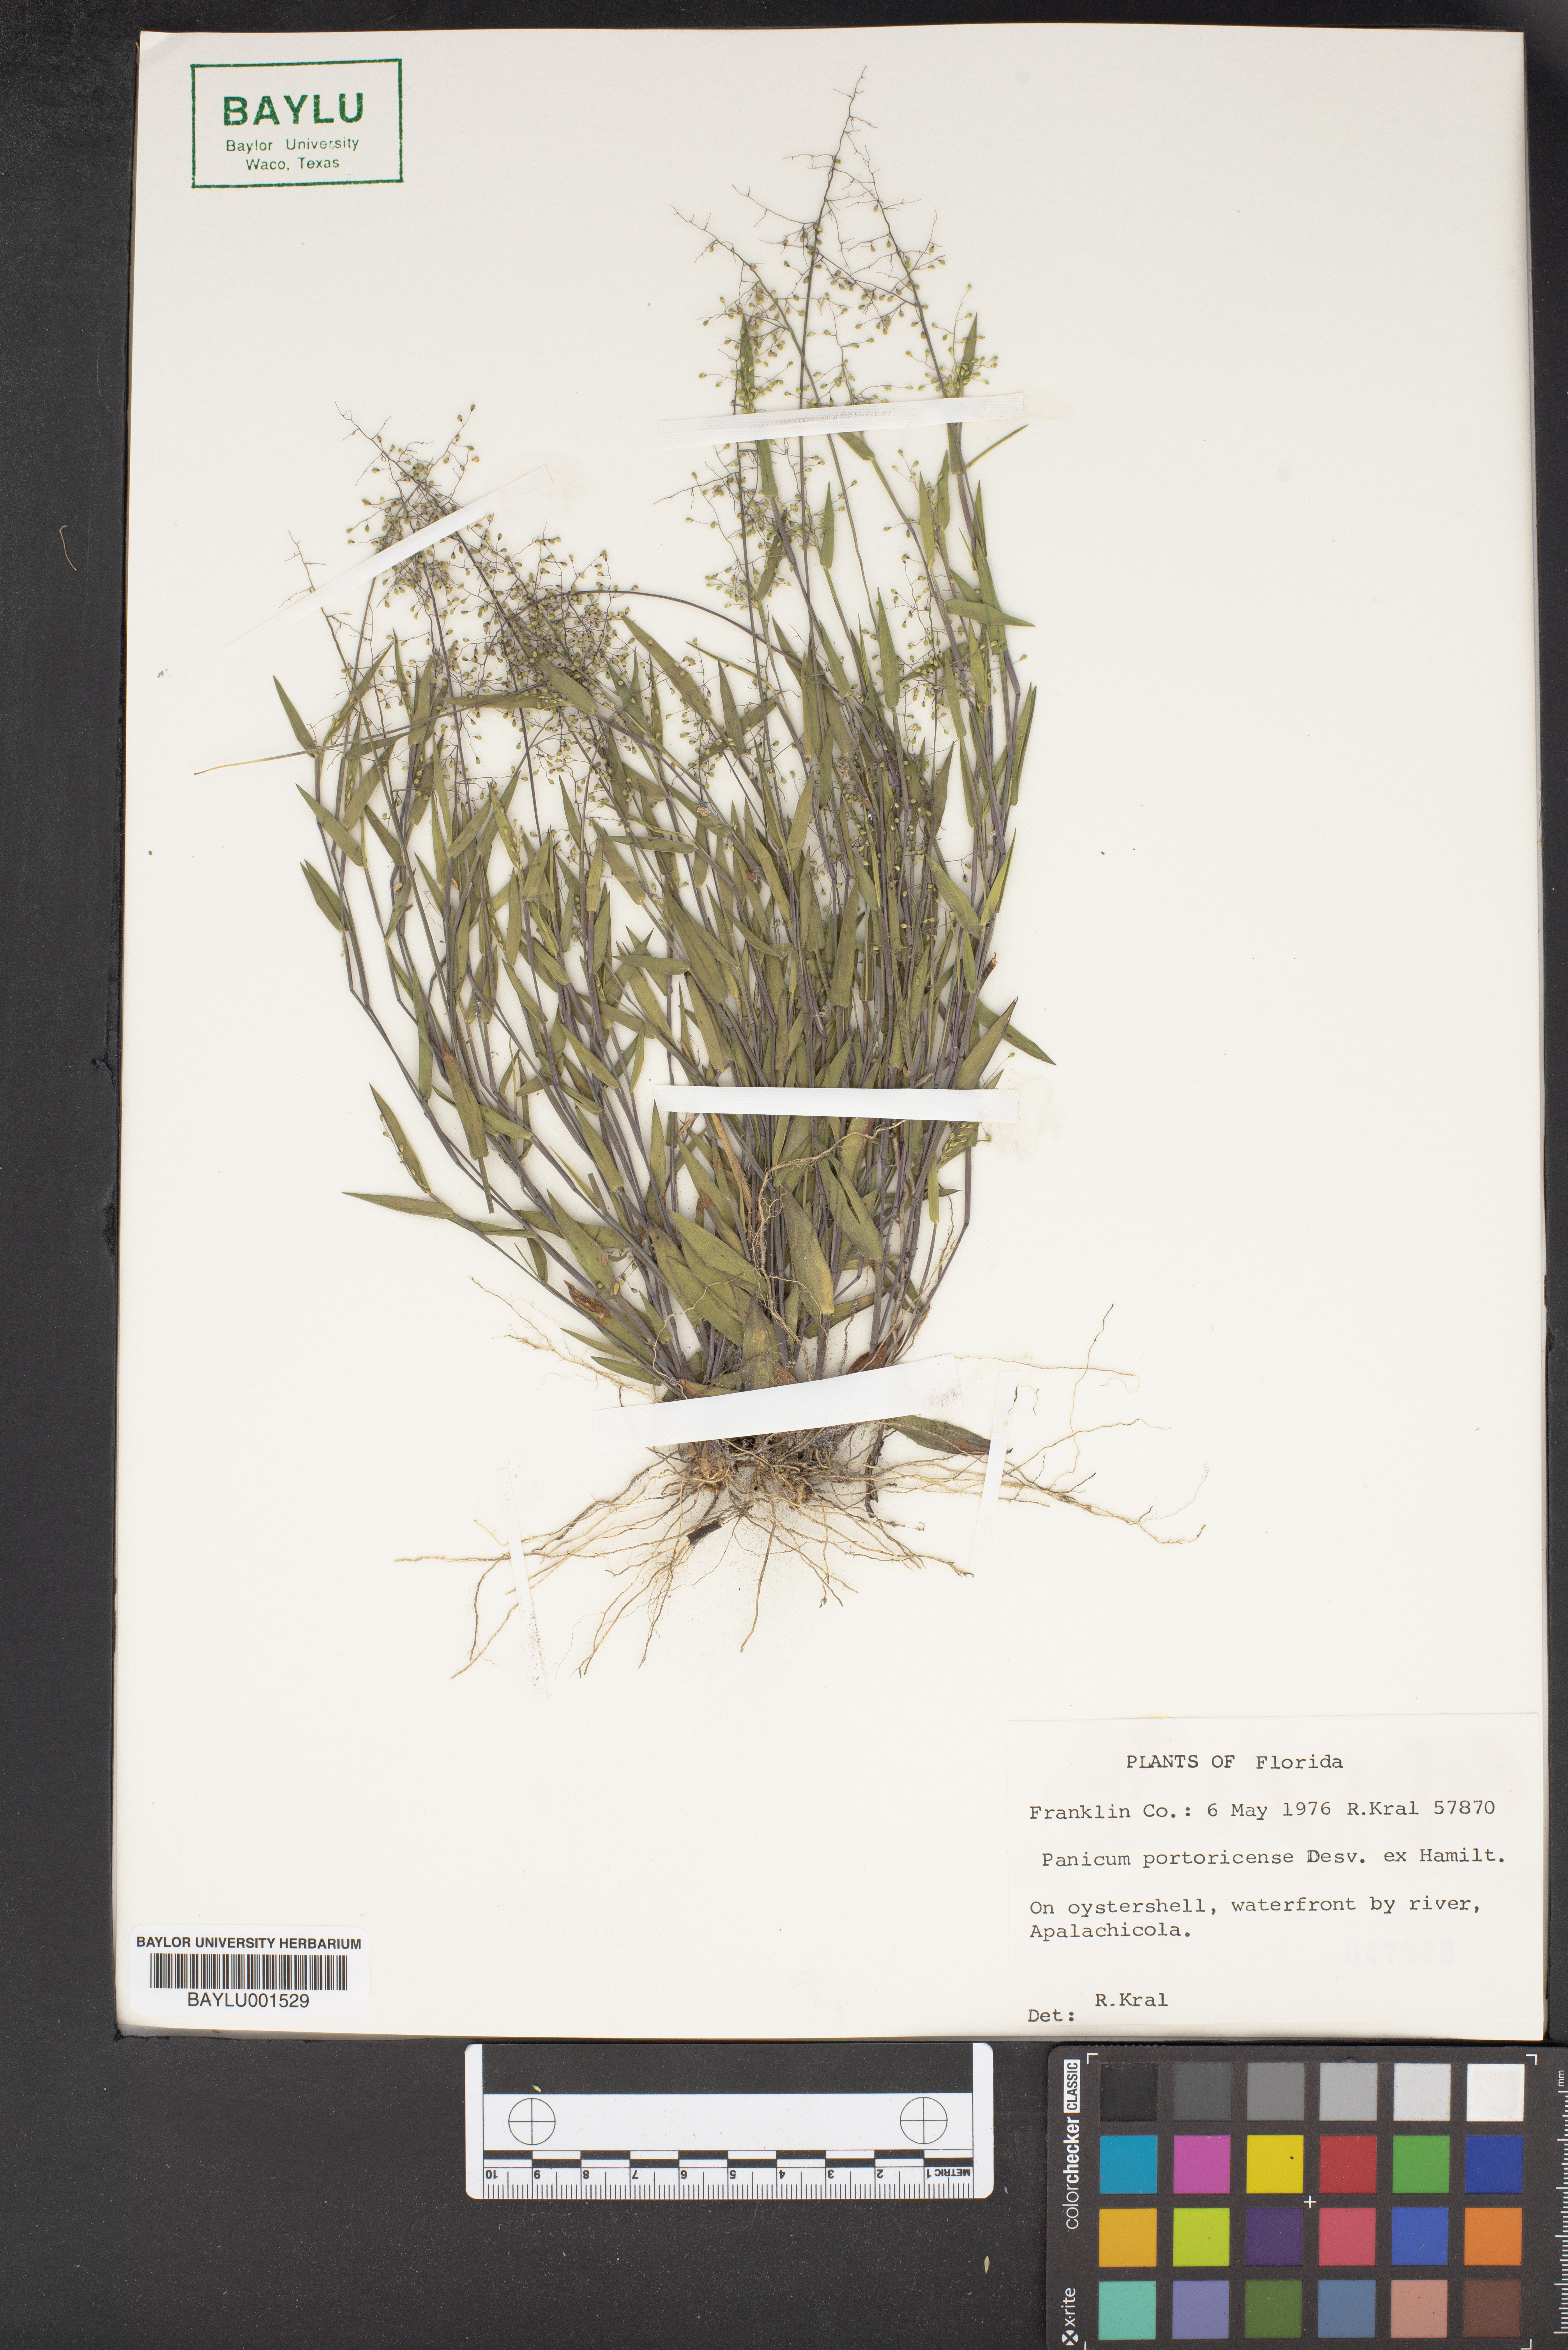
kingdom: Plantae
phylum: Tracheophyta
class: Liliopsida
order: Poales
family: Poaceae
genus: Dichanthelium
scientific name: Dichanthelium portoricense
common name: American panicgrass
